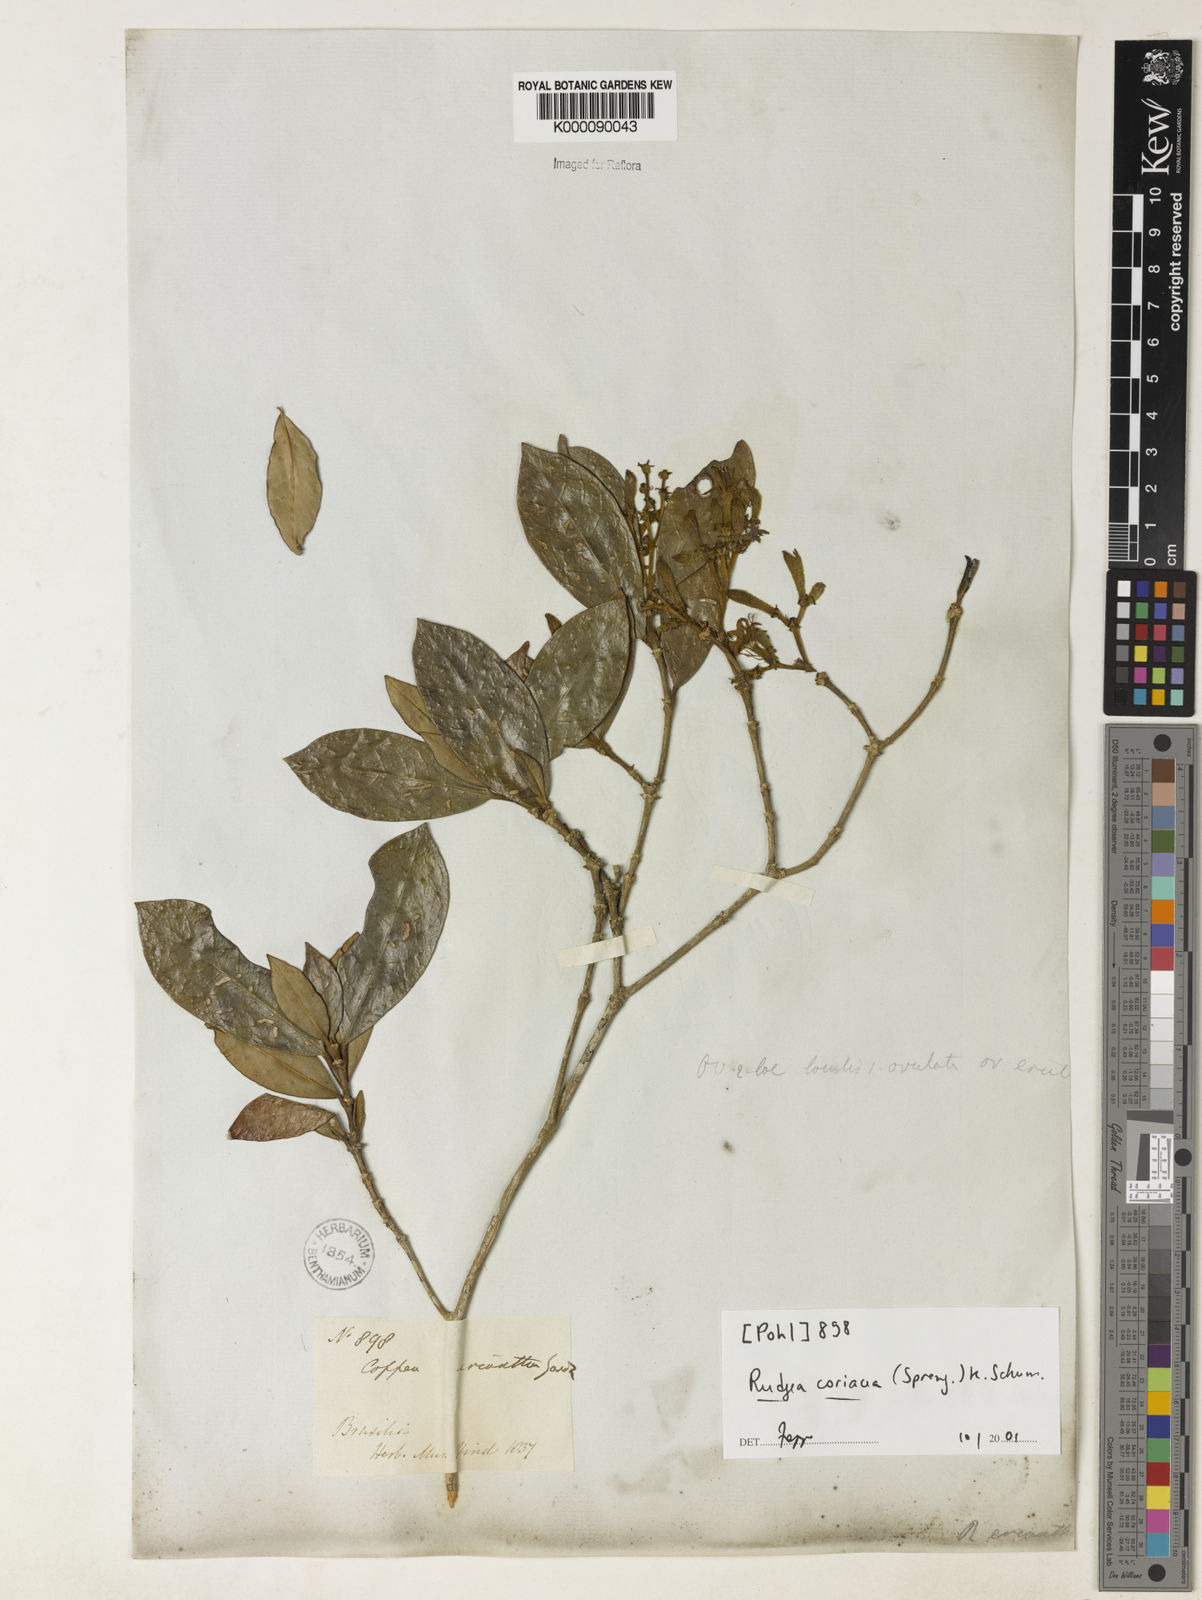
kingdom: Plantae
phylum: Tracheophyta
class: Magnoliopsida
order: Gentianales
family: Rubiaceae
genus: Rudgea
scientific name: Rudgea coriacea
